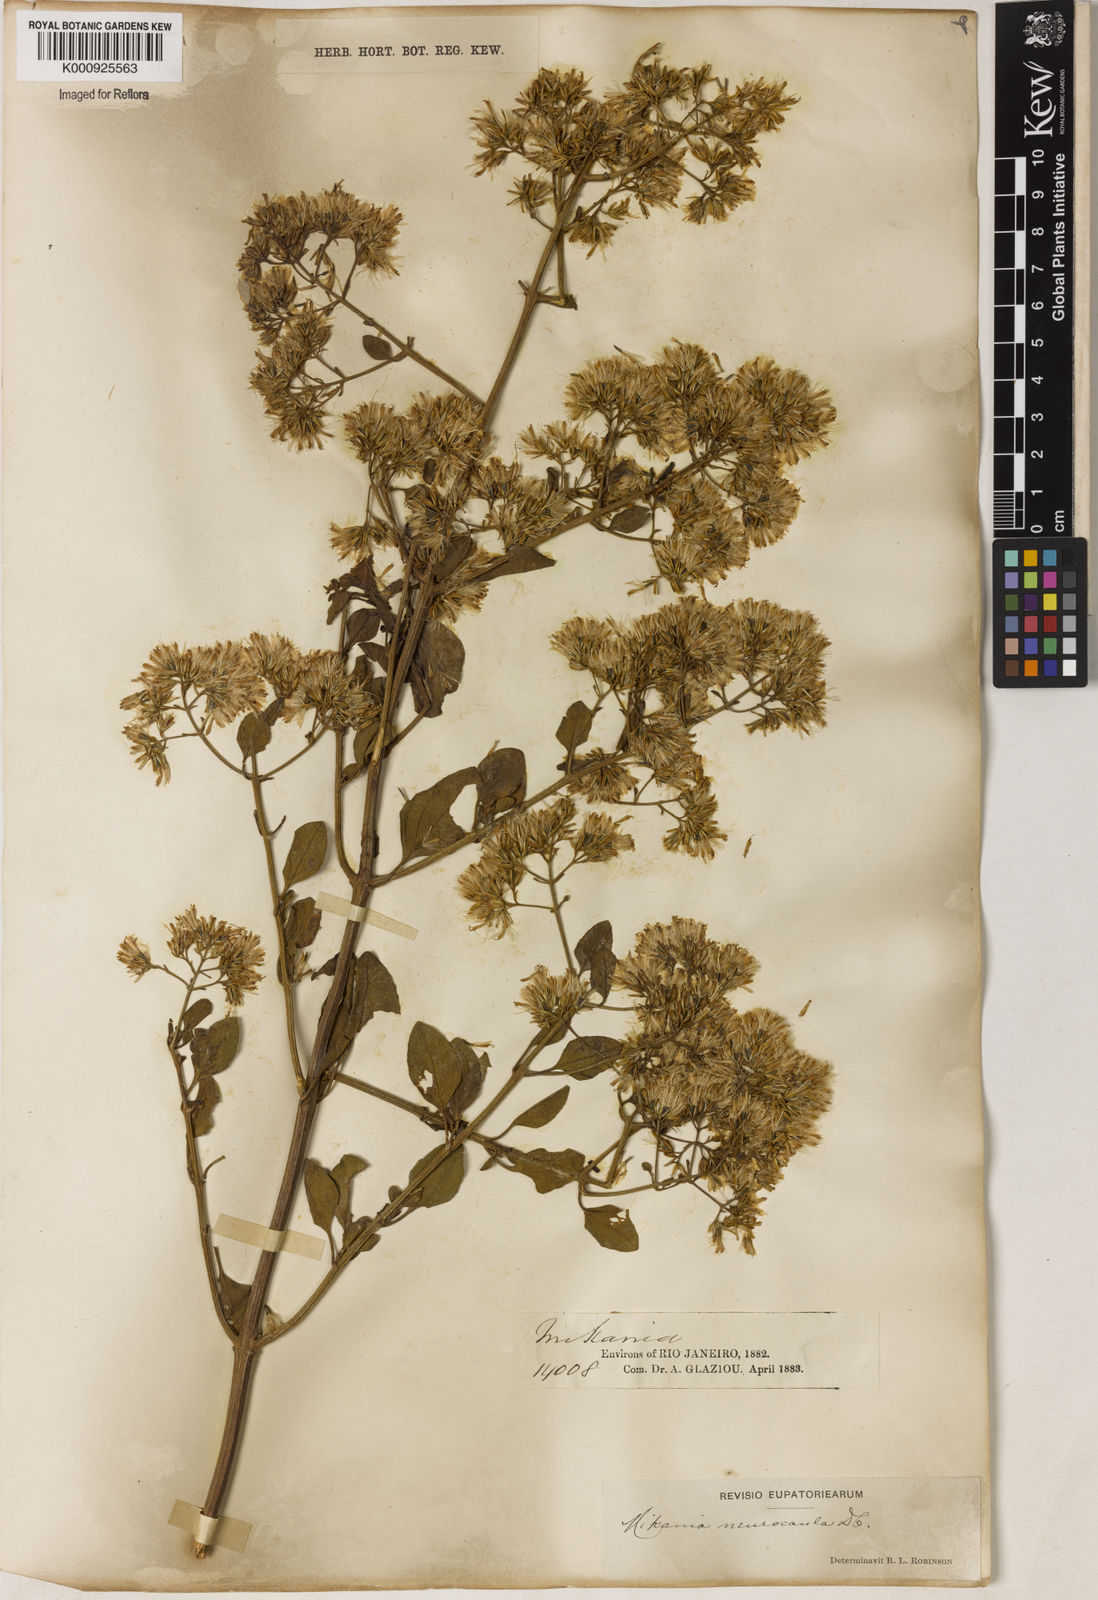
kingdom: Plantae
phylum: Tracheophyta
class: Magnoliopsida
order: Asterales
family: Asteraceae
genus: Mikania
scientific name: Mikania neurocaula
